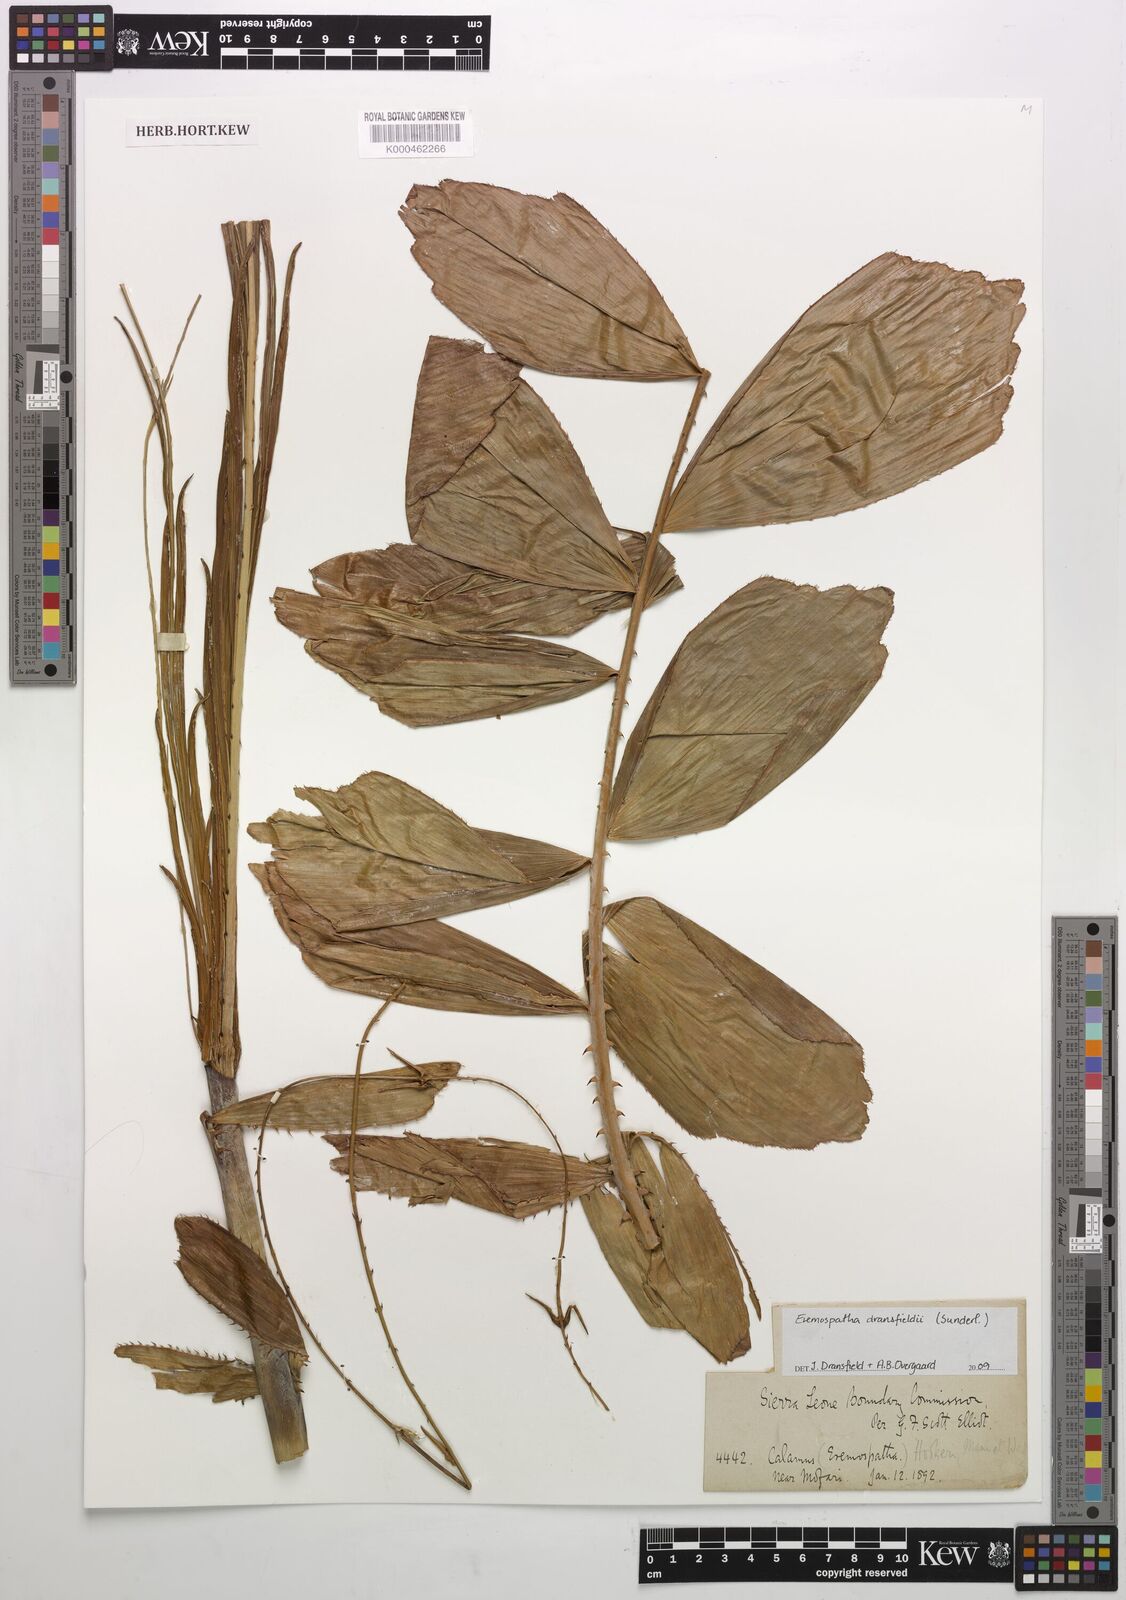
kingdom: Plantae
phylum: Tracheophyta
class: Liliopsida
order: Arecales
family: Arecaceae
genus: Eremospatha
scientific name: Eremospatha hookeri
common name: Rattan
